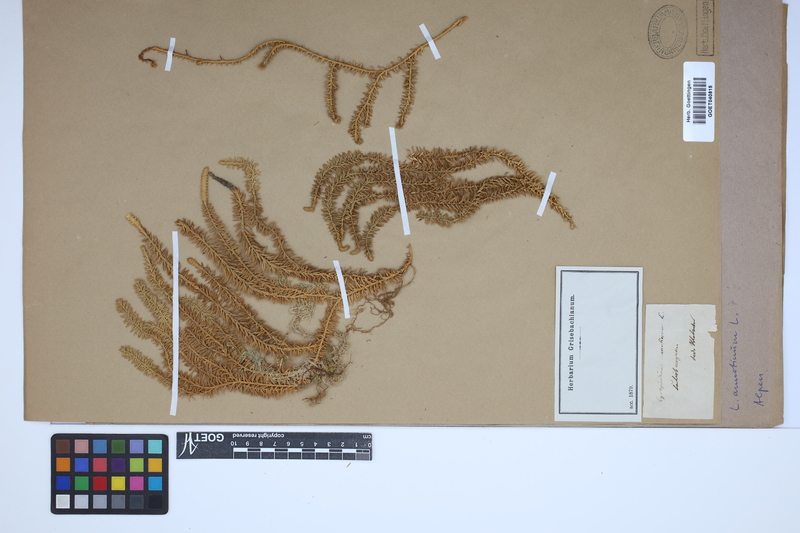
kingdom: Plantae
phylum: Tracheophyta
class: Lycopodiopsida
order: Lycopodiales
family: Lycopodiaceae
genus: Spinulum
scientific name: Spinulum annotinum
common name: Interrupted club-moss
